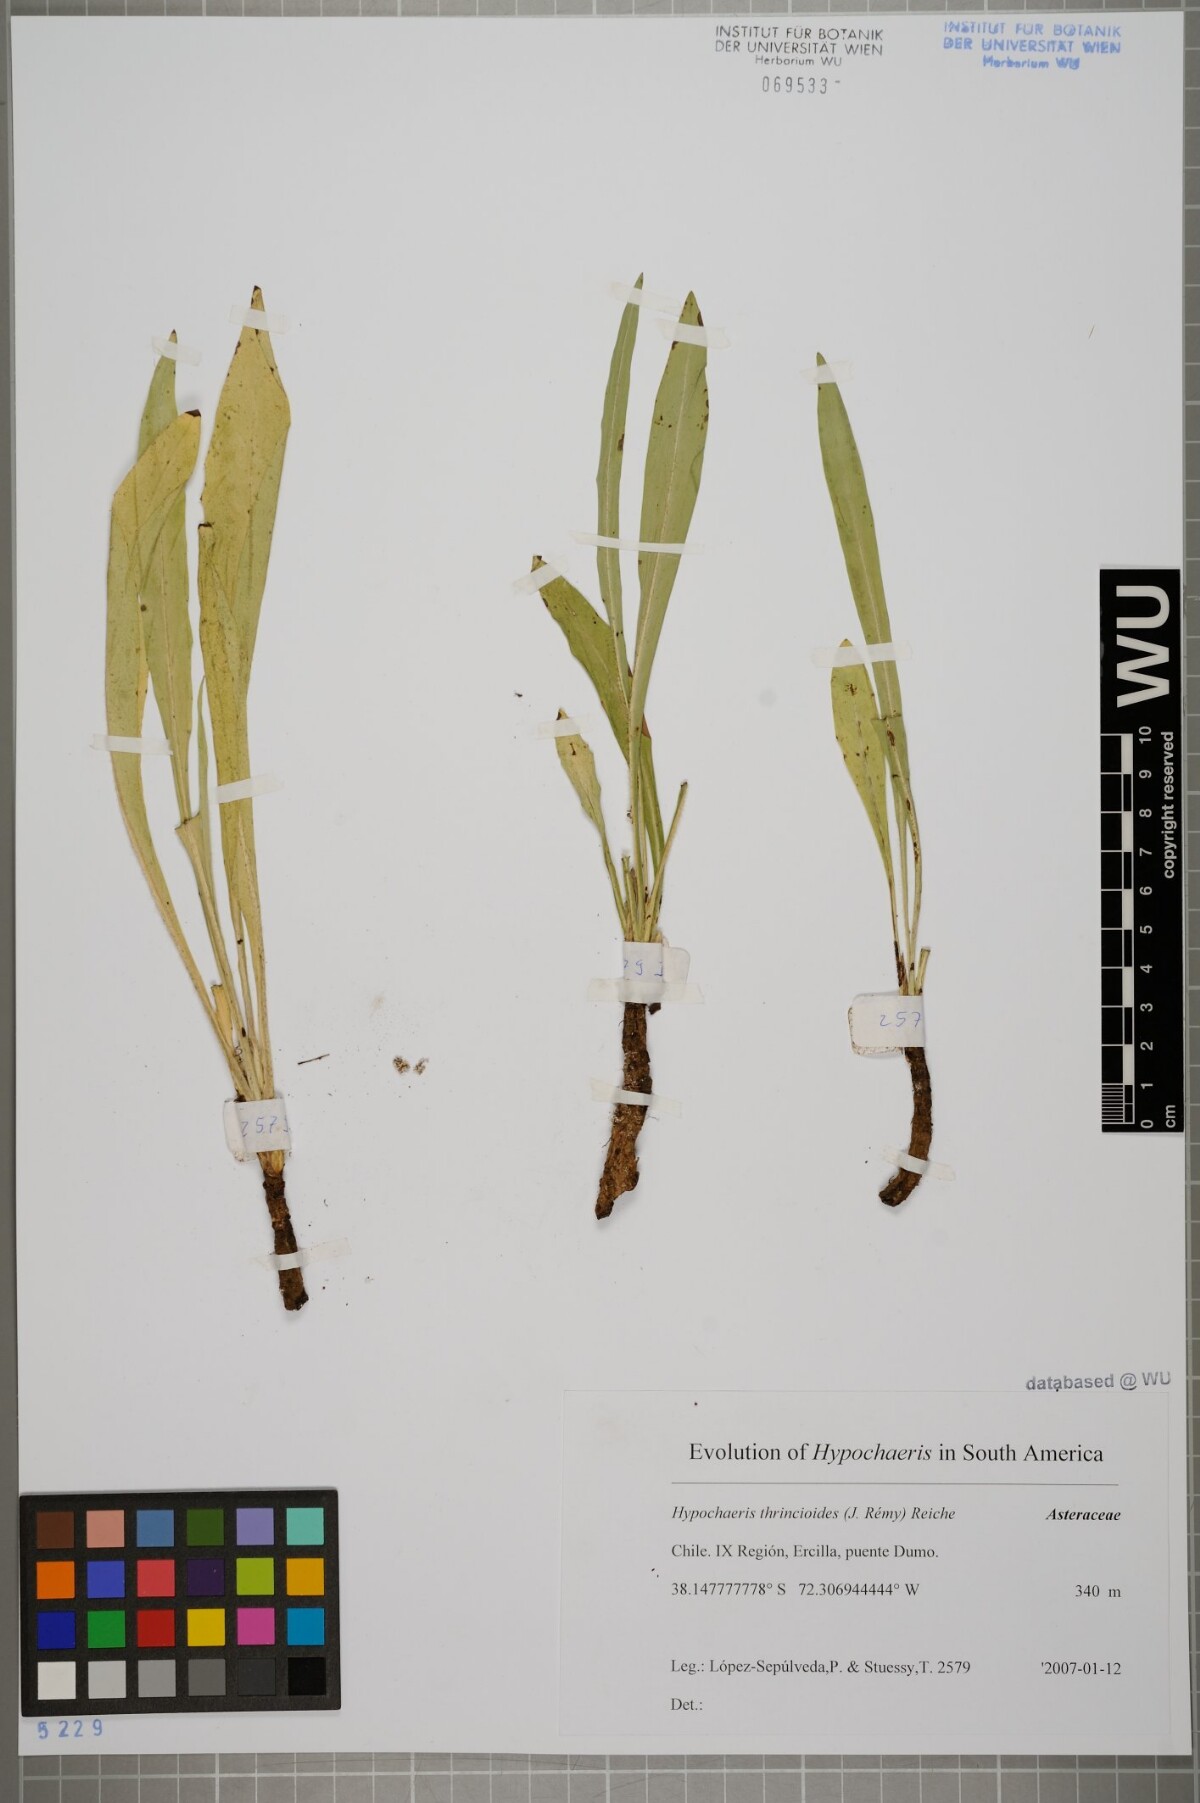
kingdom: Plantae
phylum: Tracheophyta
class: Magnoliopsida
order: Asterales
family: Asteraceae
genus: Hypochaeris
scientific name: Hypochaeris apargioides
